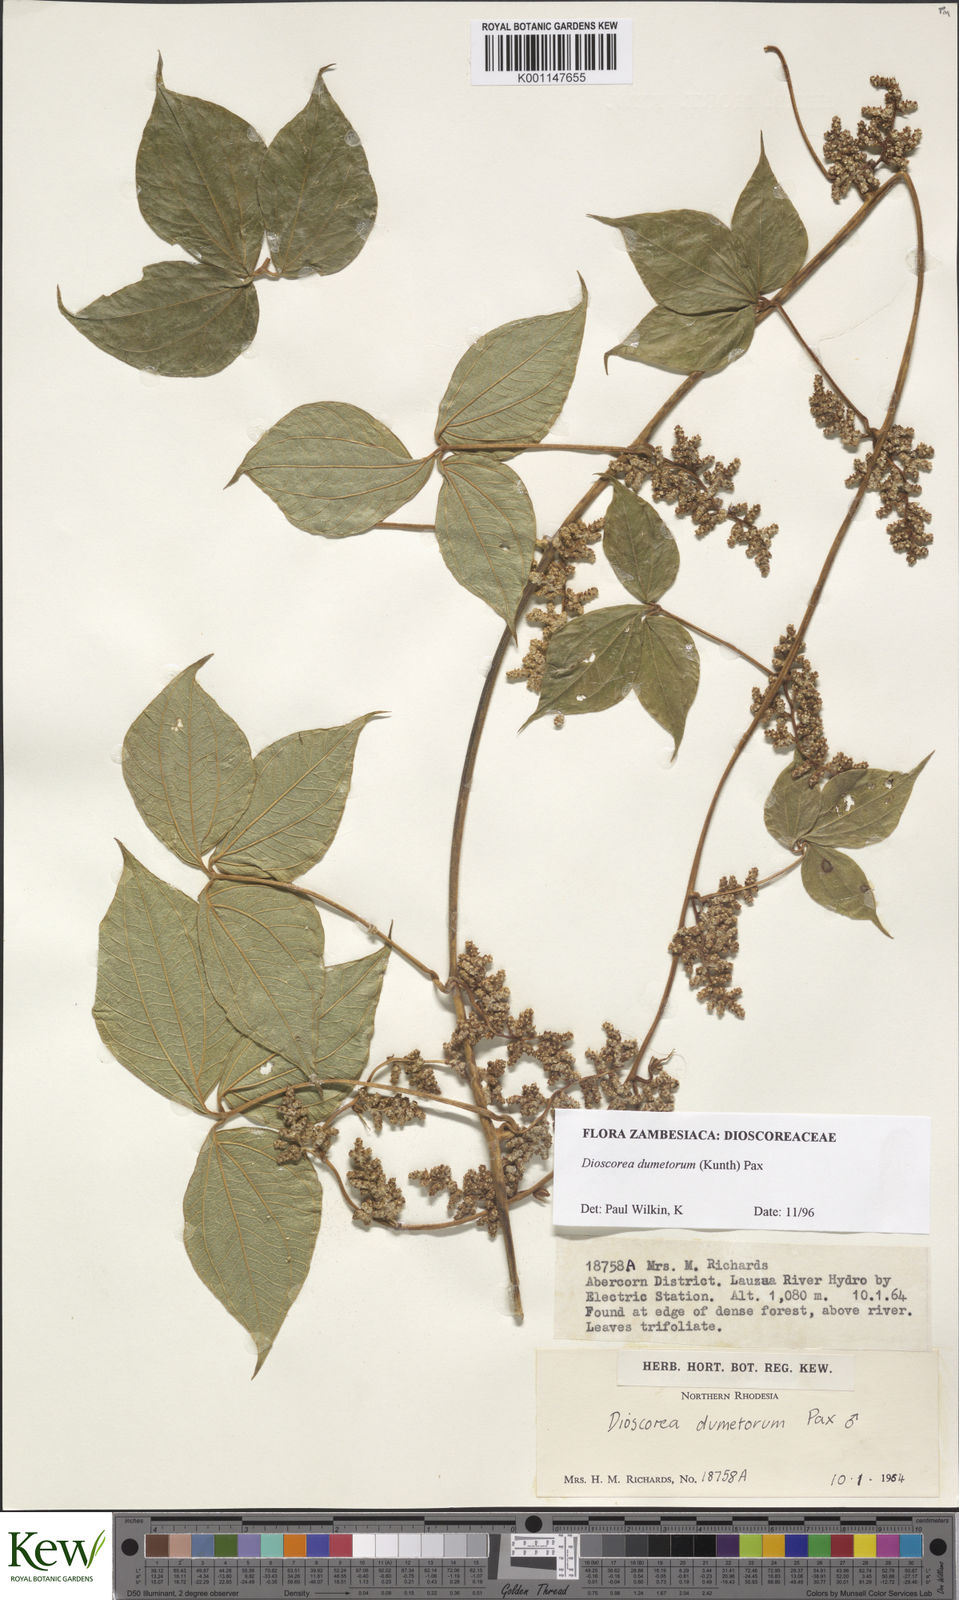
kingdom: Plantae
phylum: Tracheophyta
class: Liliopsida
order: Dioscoreales
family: Dioscoreaceae
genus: Dioscorea
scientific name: Dioscorea dumetorum
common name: African bitter yam
